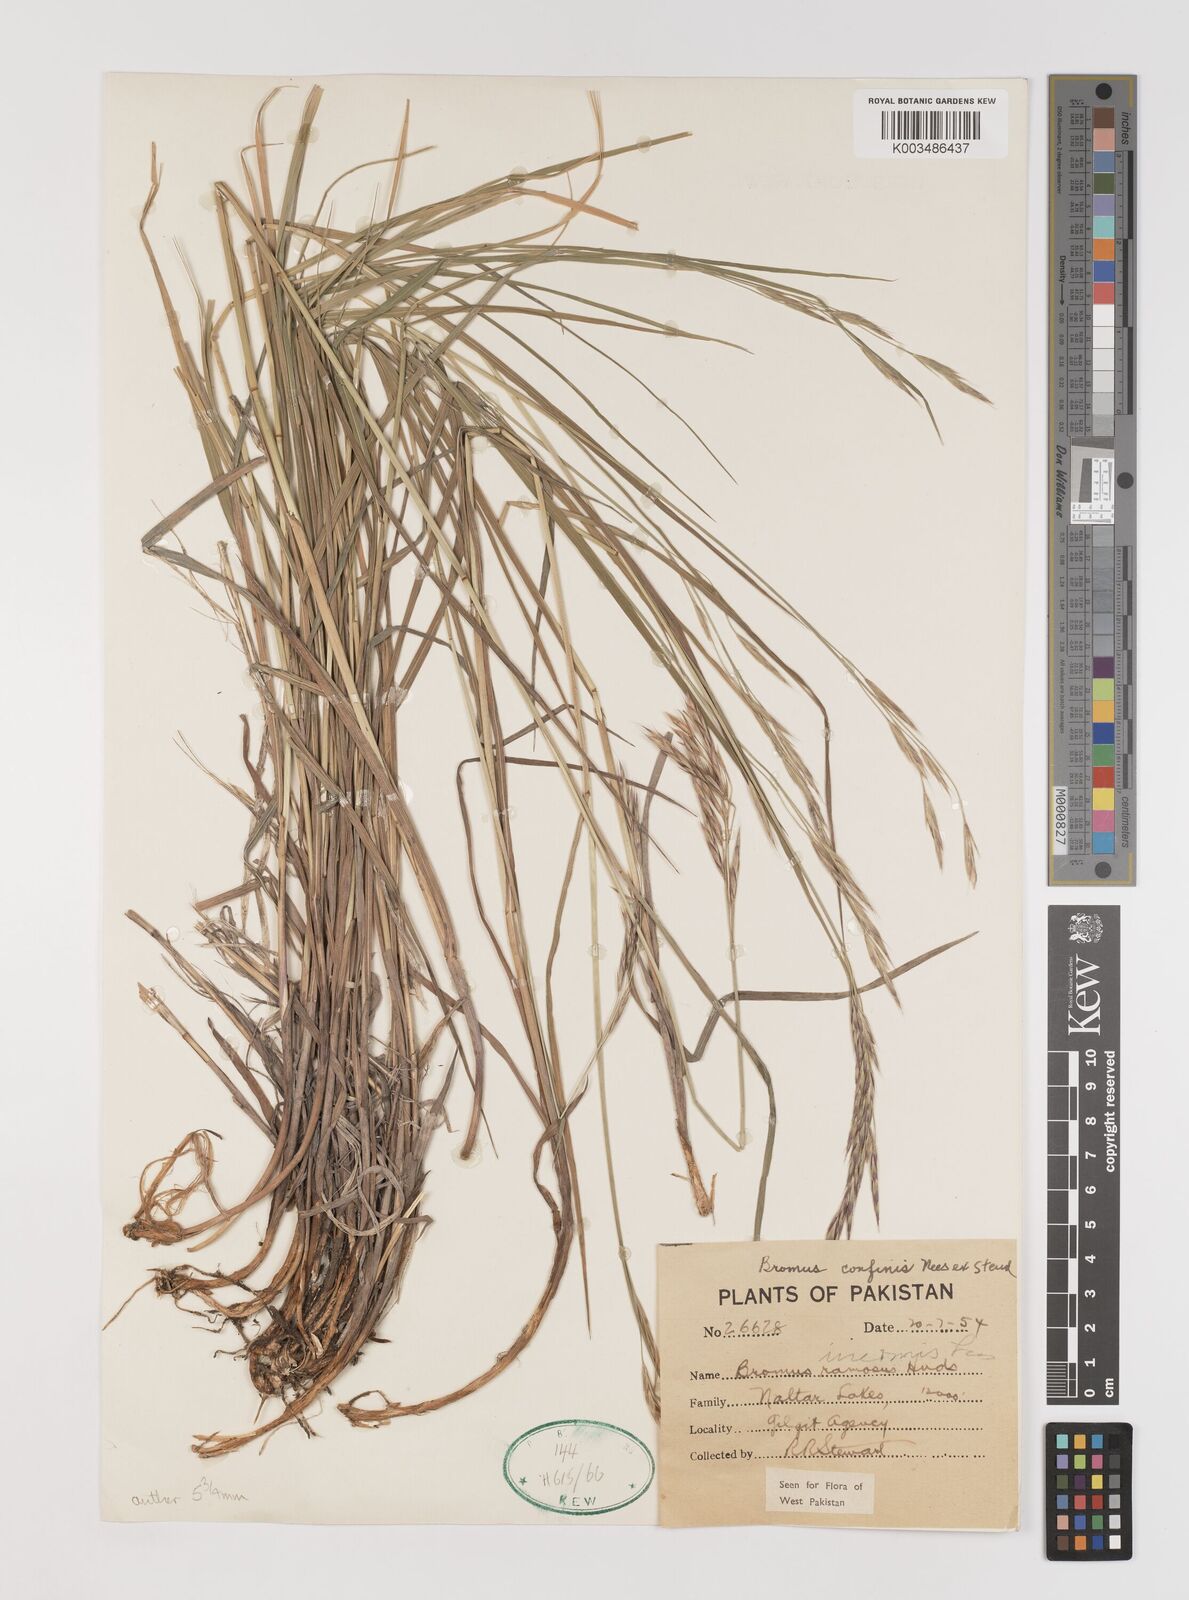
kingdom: Plantae
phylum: Tracheophyta
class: Liliopsida
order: Poales
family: Poaceae
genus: Bromus
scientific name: Bromus confinis
